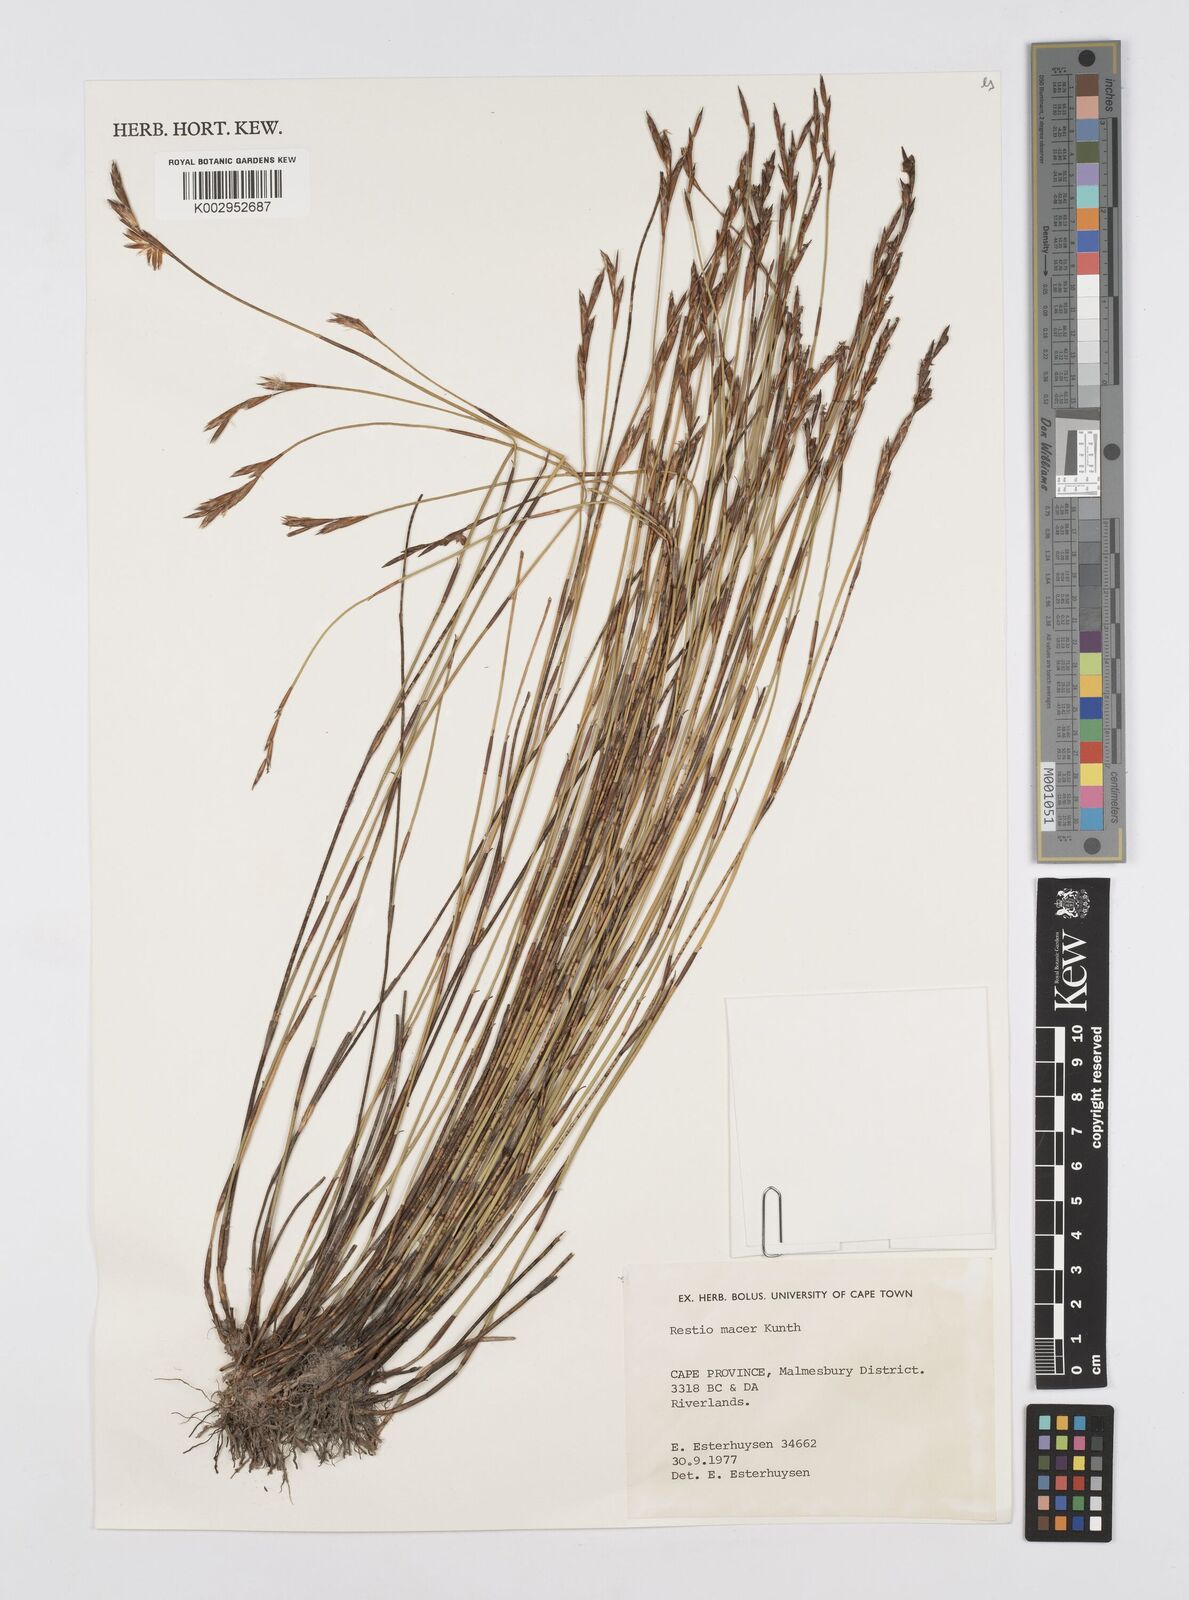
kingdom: Plantae
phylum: Tracheophyta
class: Liliopsida
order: Poales
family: Restionaceae
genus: Restio
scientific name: Restio macer
